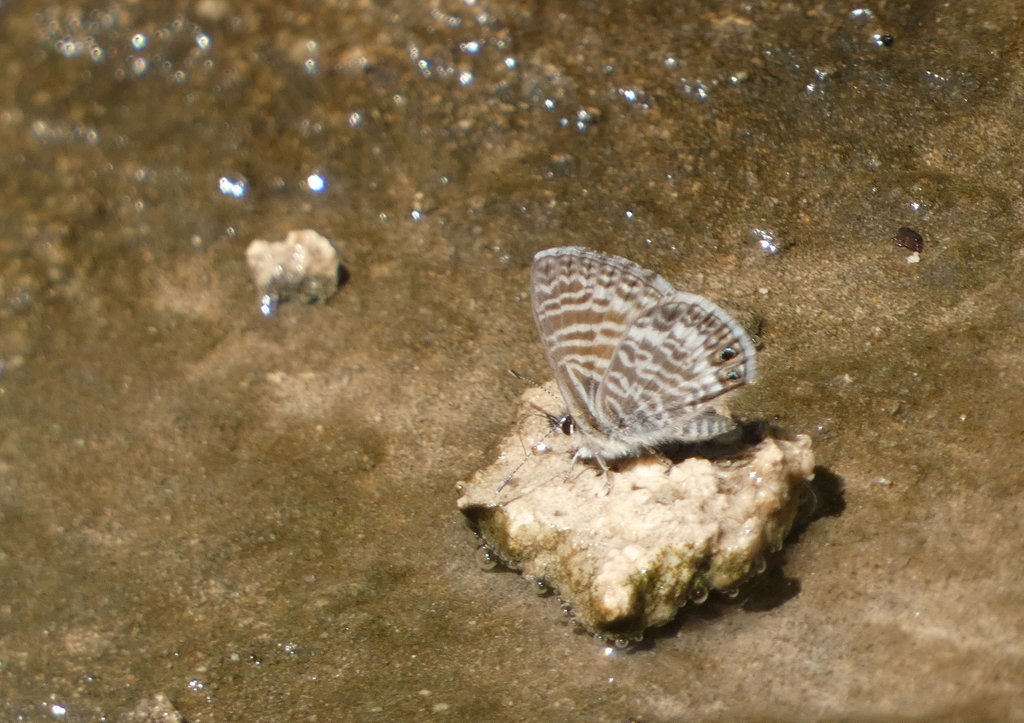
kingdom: Animalia
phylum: Arthropoda
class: Insecta
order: Lepidoptera
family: Lycaenidae
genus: Leptotes
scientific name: Leptotes marina
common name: Marine Blue
